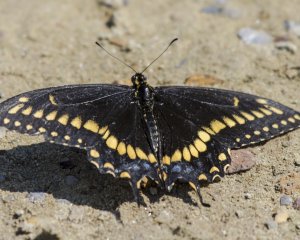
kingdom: Animalia
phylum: Arthropoda
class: Insecta
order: Lepidoptera
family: Papilionidae
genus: Papilio
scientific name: Papilio brevicauda
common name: Short-tailed Swallowtail
